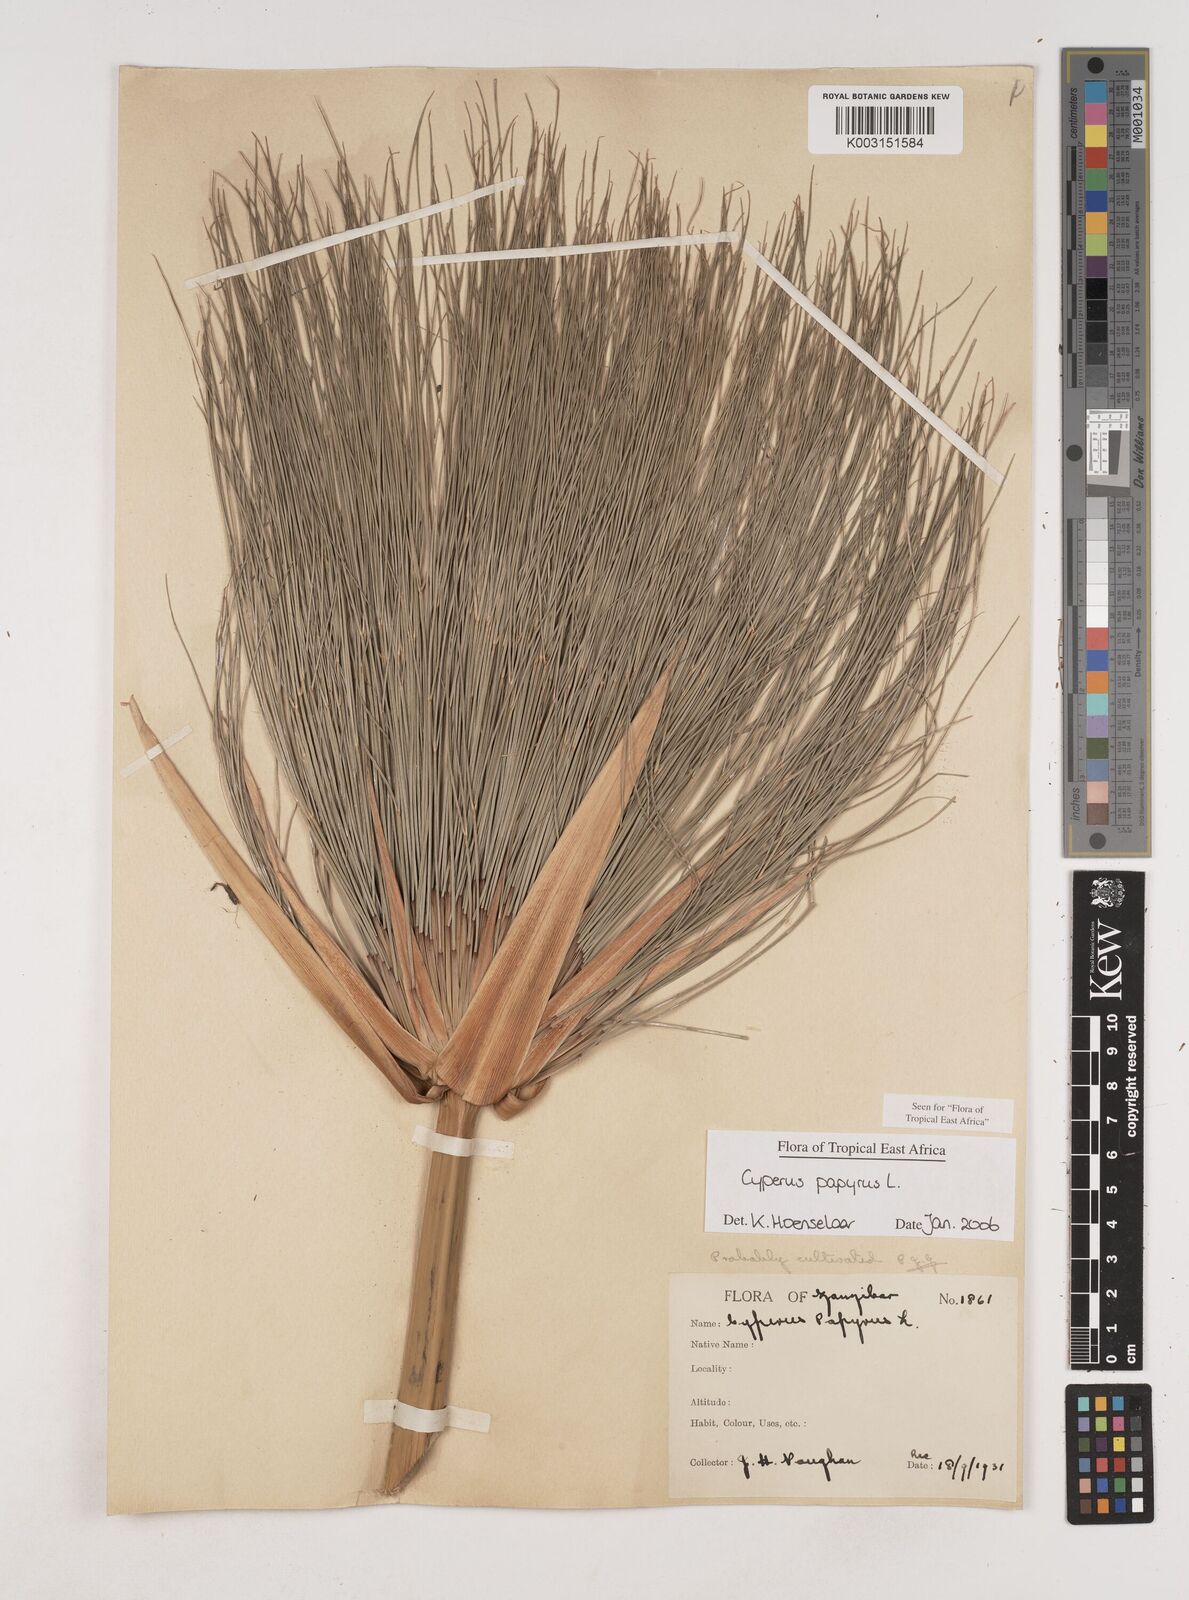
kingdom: Plantae
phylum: Tracheophyta
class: Liliopsida
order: Poales
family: Cyperaceae
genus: Cyperus
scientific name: Cyperus papyrus
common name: Papyrus
